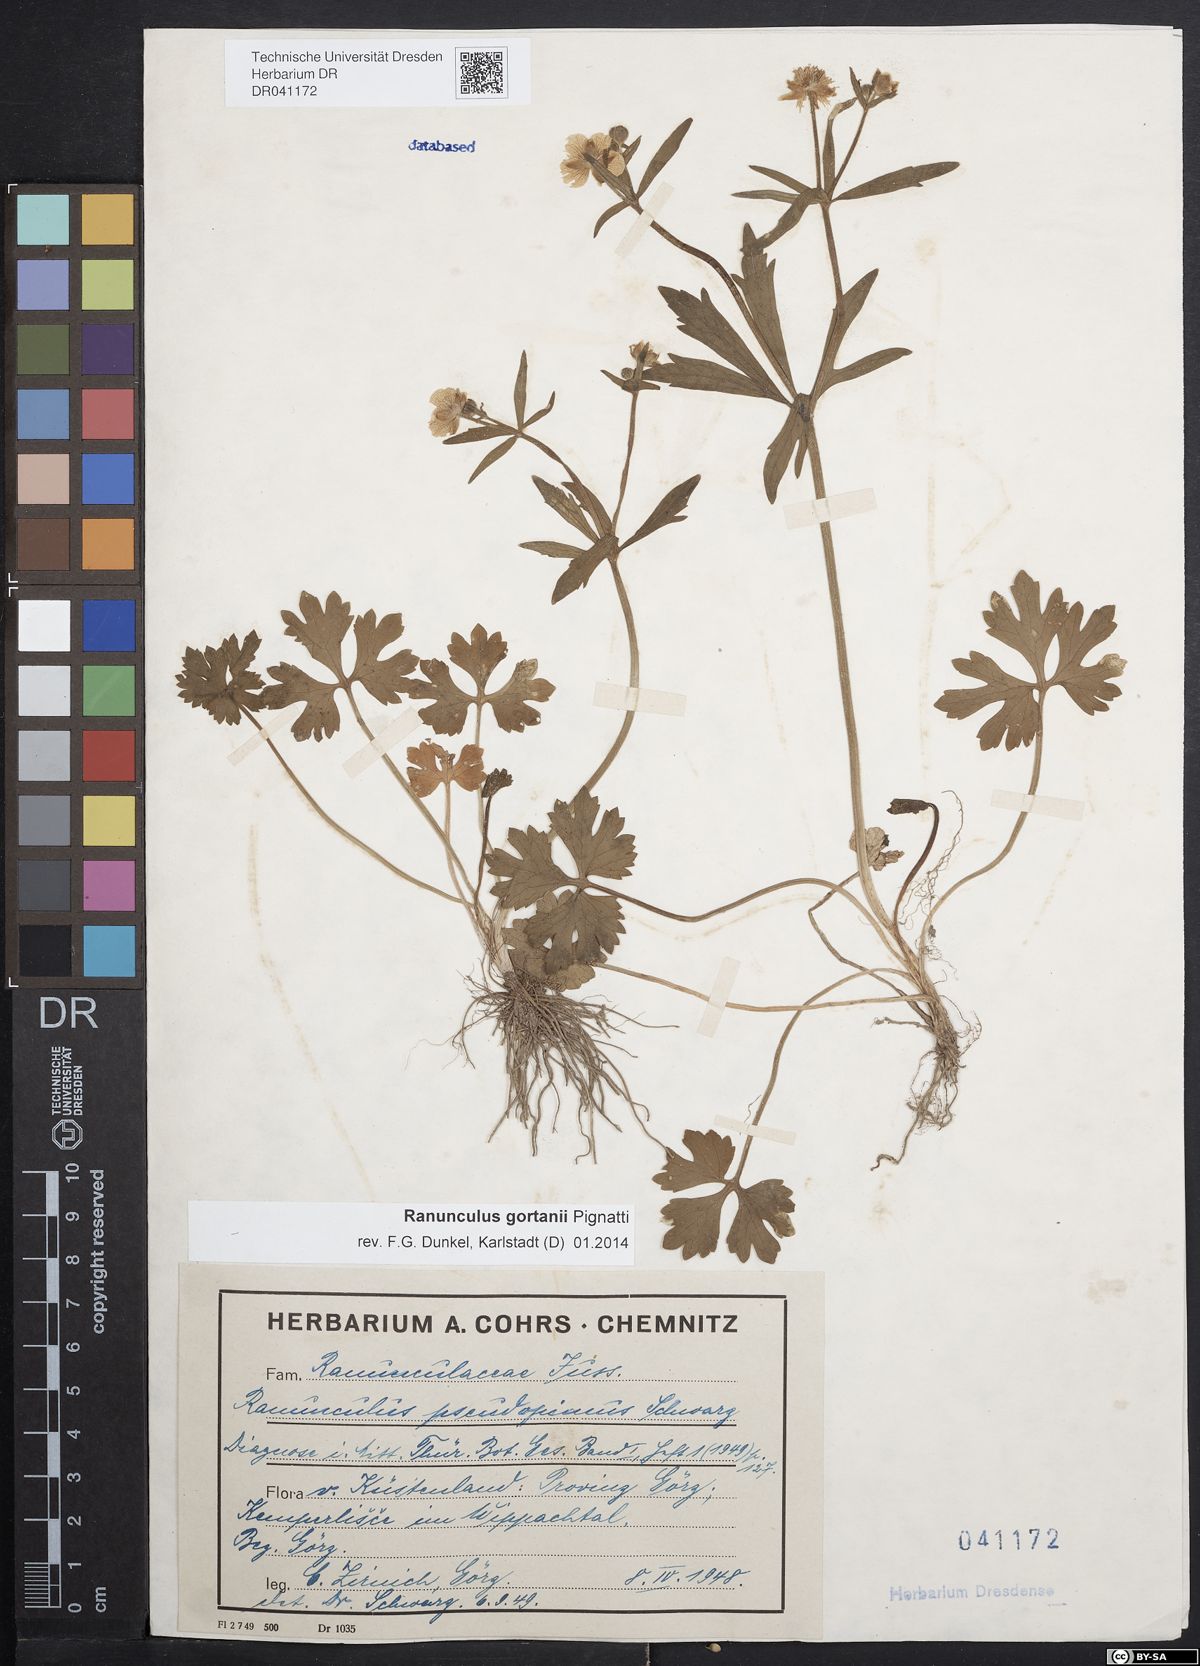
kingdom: Plantae
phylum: Tracheophyta
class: Magnoliopsida
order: Ranunculales
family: Ranunculaceae
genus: Ranunculus
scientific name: Ranunculus gortanii
